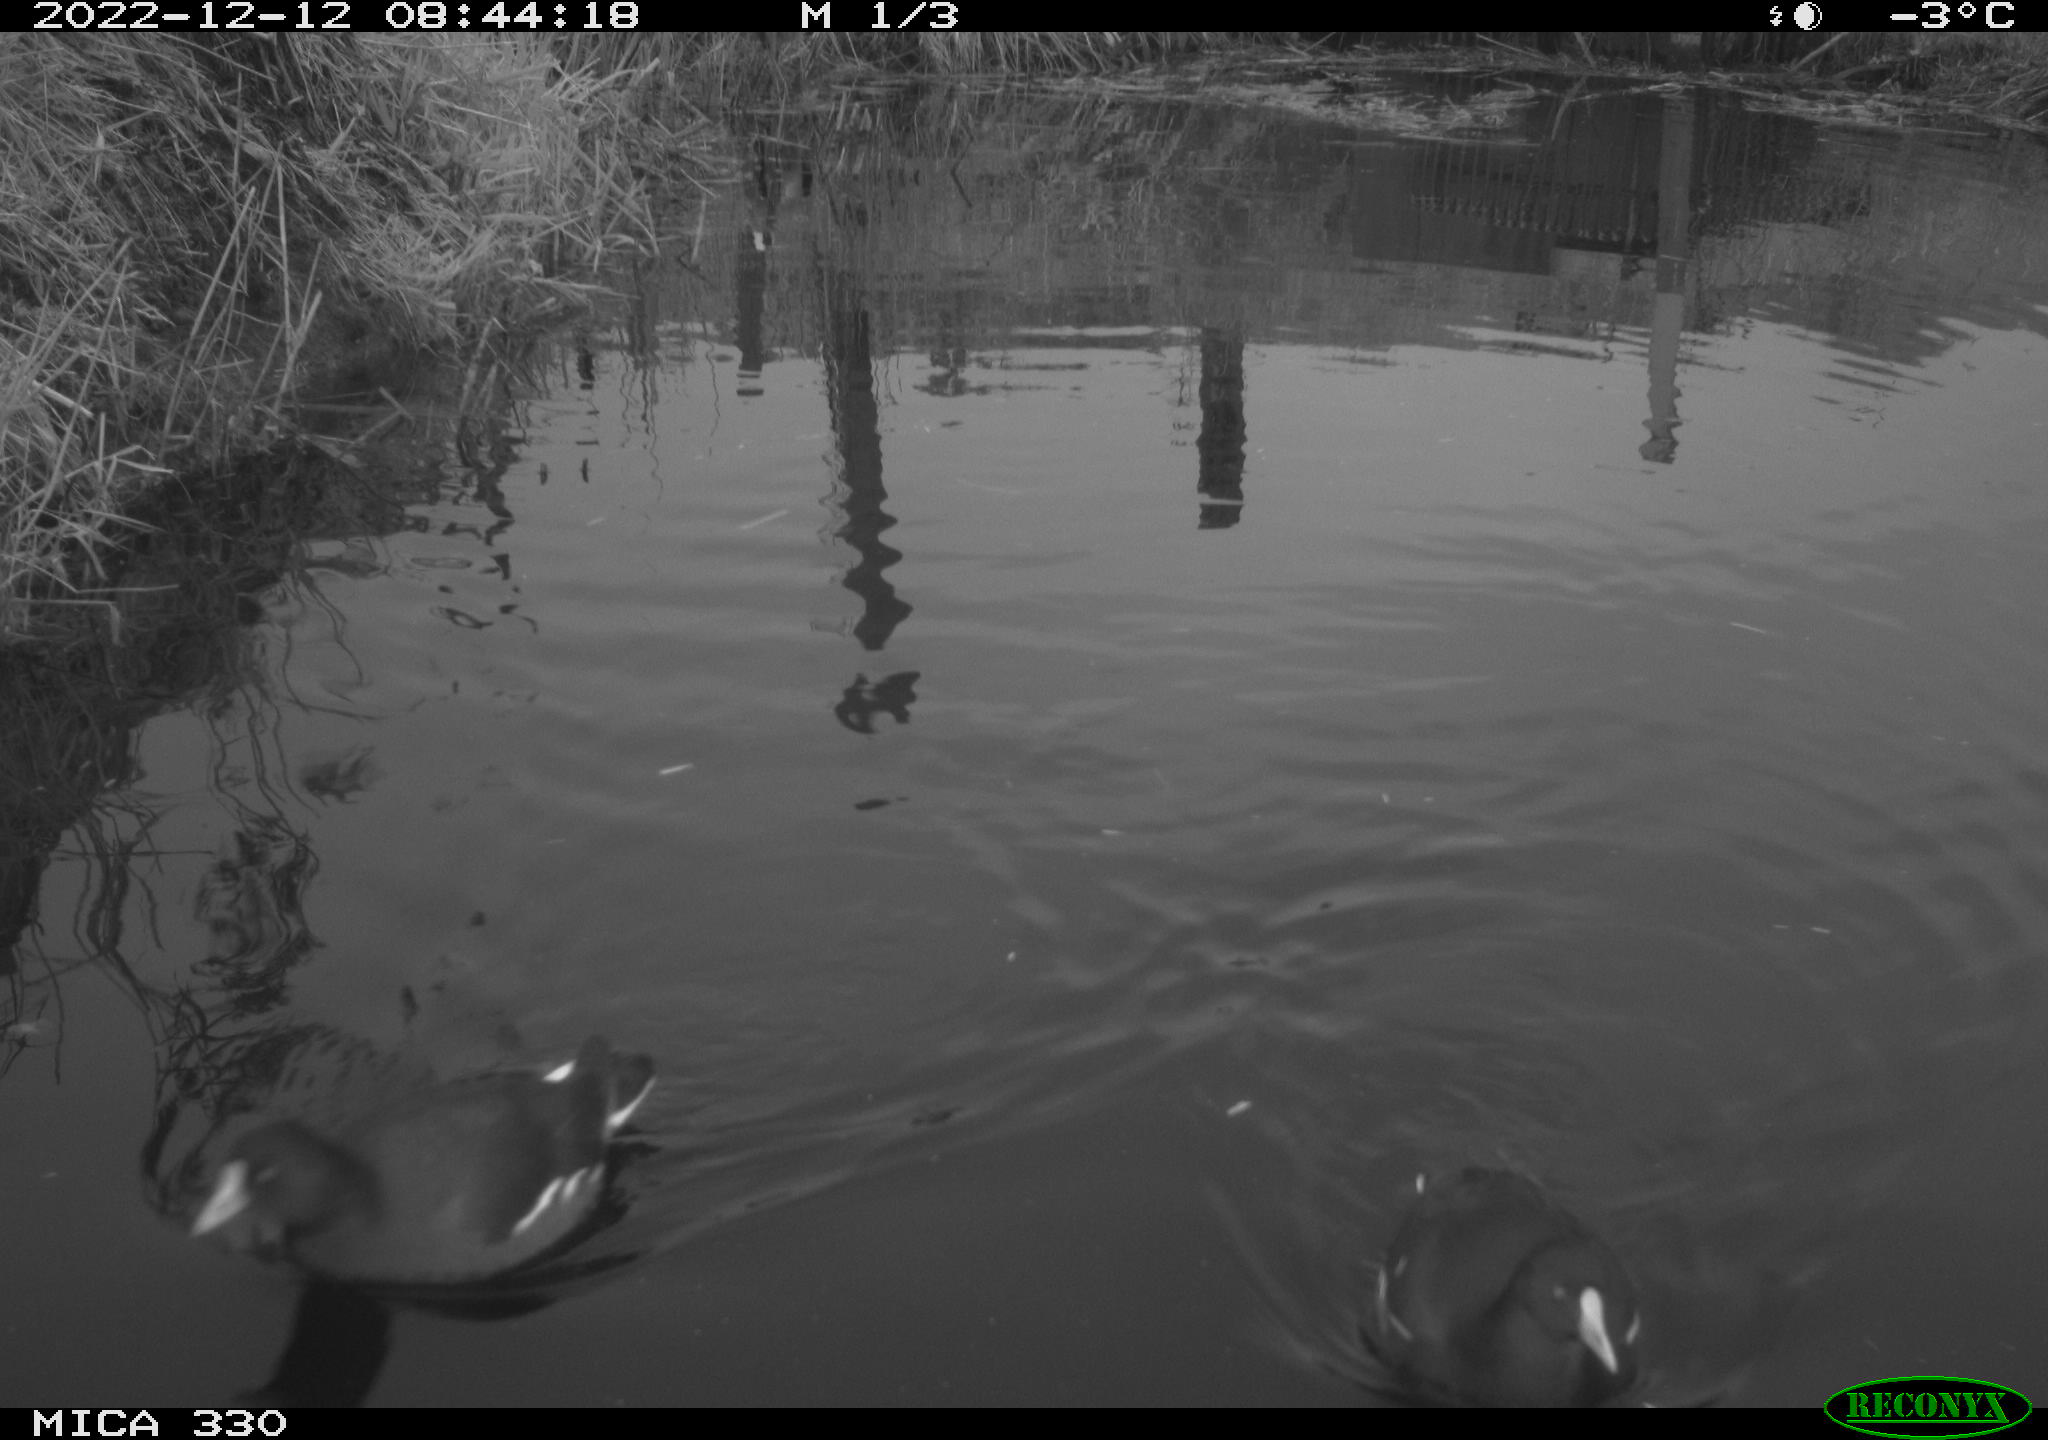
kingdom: Animalia
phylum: Chordata
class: Aves
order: Gruiformes
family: Rallidae
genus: Fulica
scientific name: Fulica atra
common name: Eurasian coot
